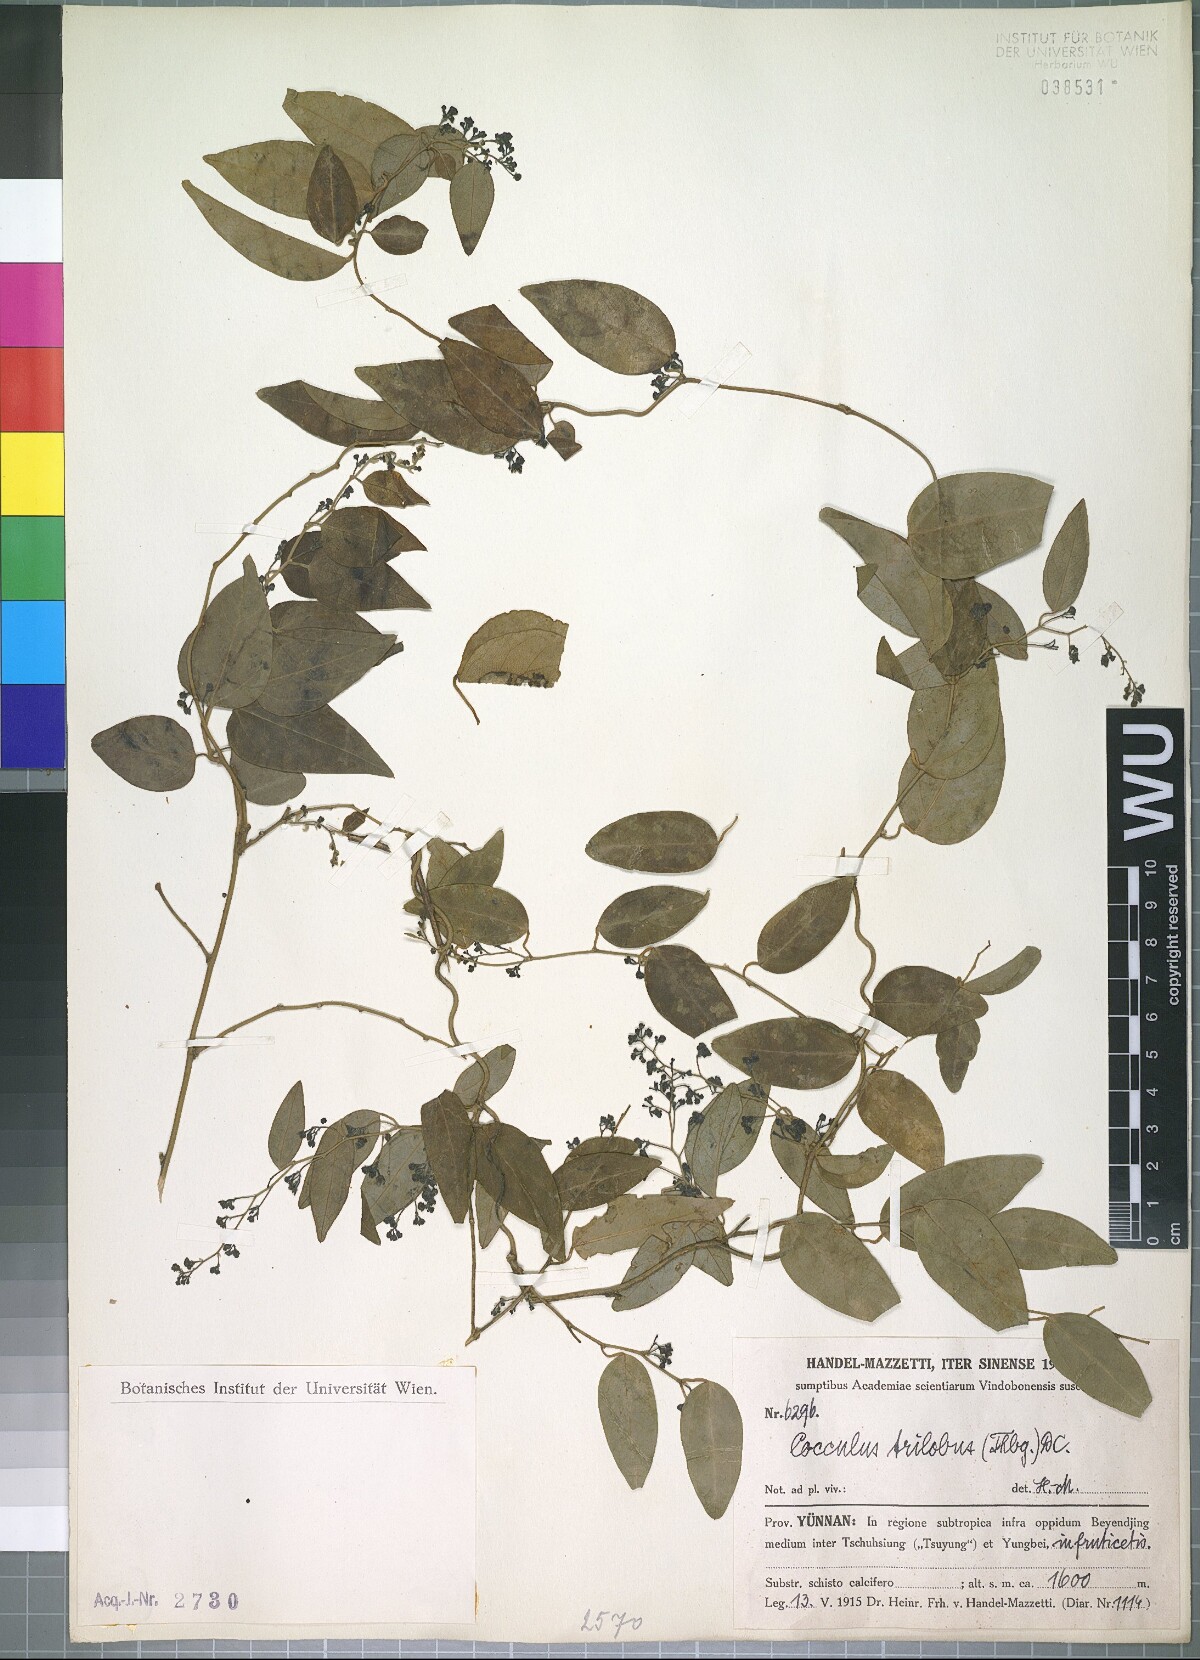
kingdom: Plantae
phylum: Tracheophyta
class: Magnoliopsida
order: Ranunculales
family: Menispermaceae
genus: Cocculus
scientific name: Cocculus orbiculatus
